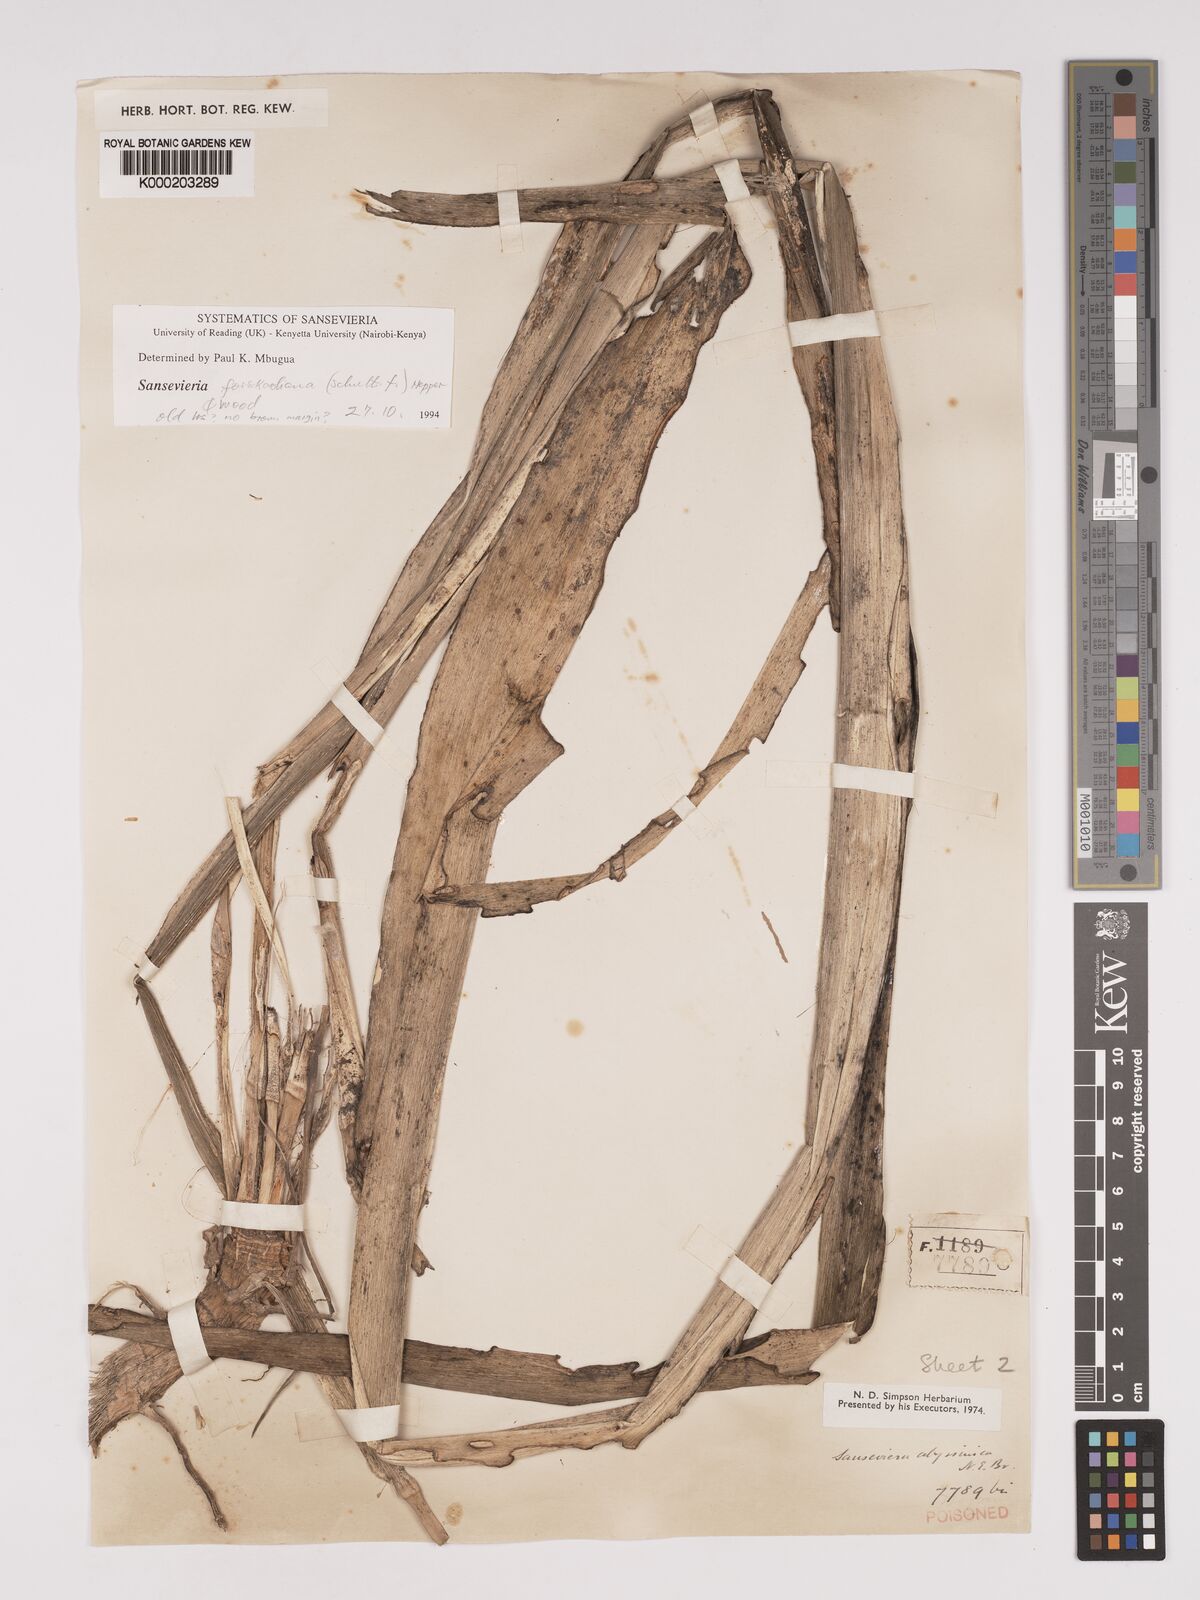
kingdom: Plantae
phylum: Tracheophyta
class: Liliopsida
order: Asparagales
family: Asparagaceae
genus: Dracaena
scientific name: Dracaena forskaliana
